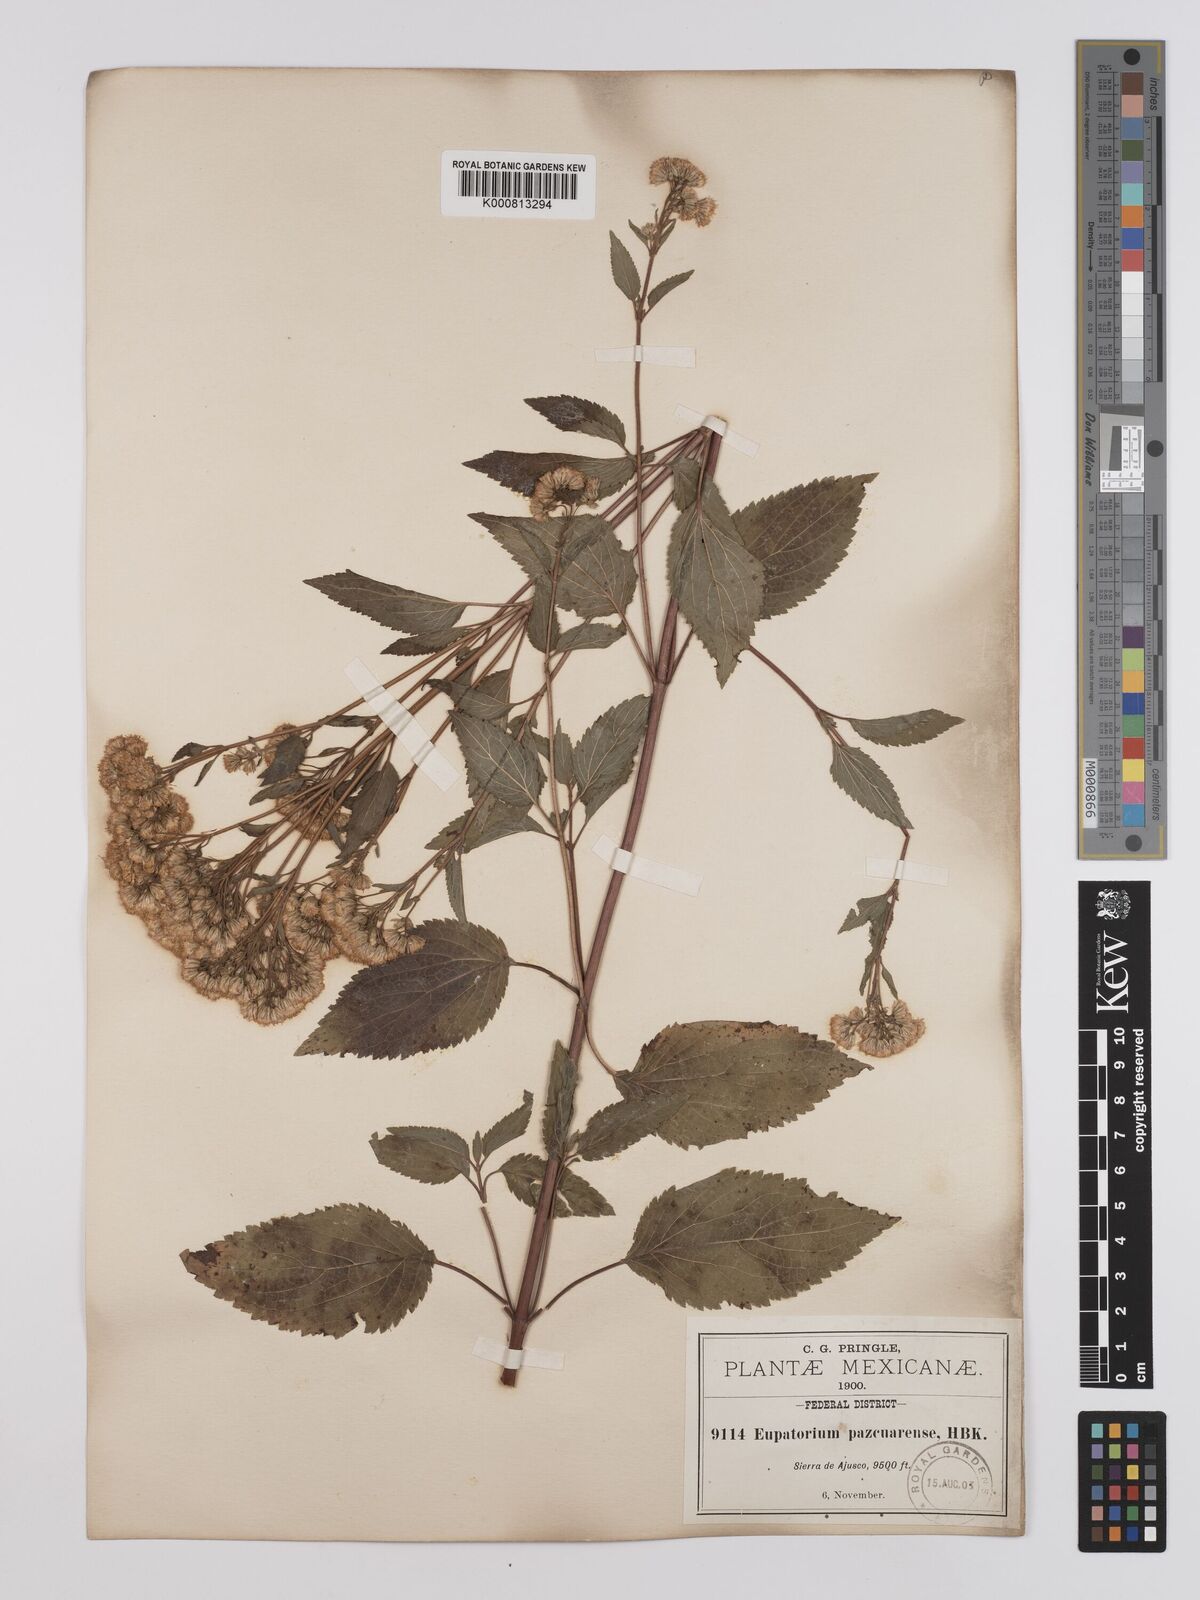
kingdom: Plantae
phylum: Tracheophyta
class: Magnoliopsida
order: Asterales
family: Asteraceae
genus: Ageratina
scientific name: Ageratina pazcuarensis
